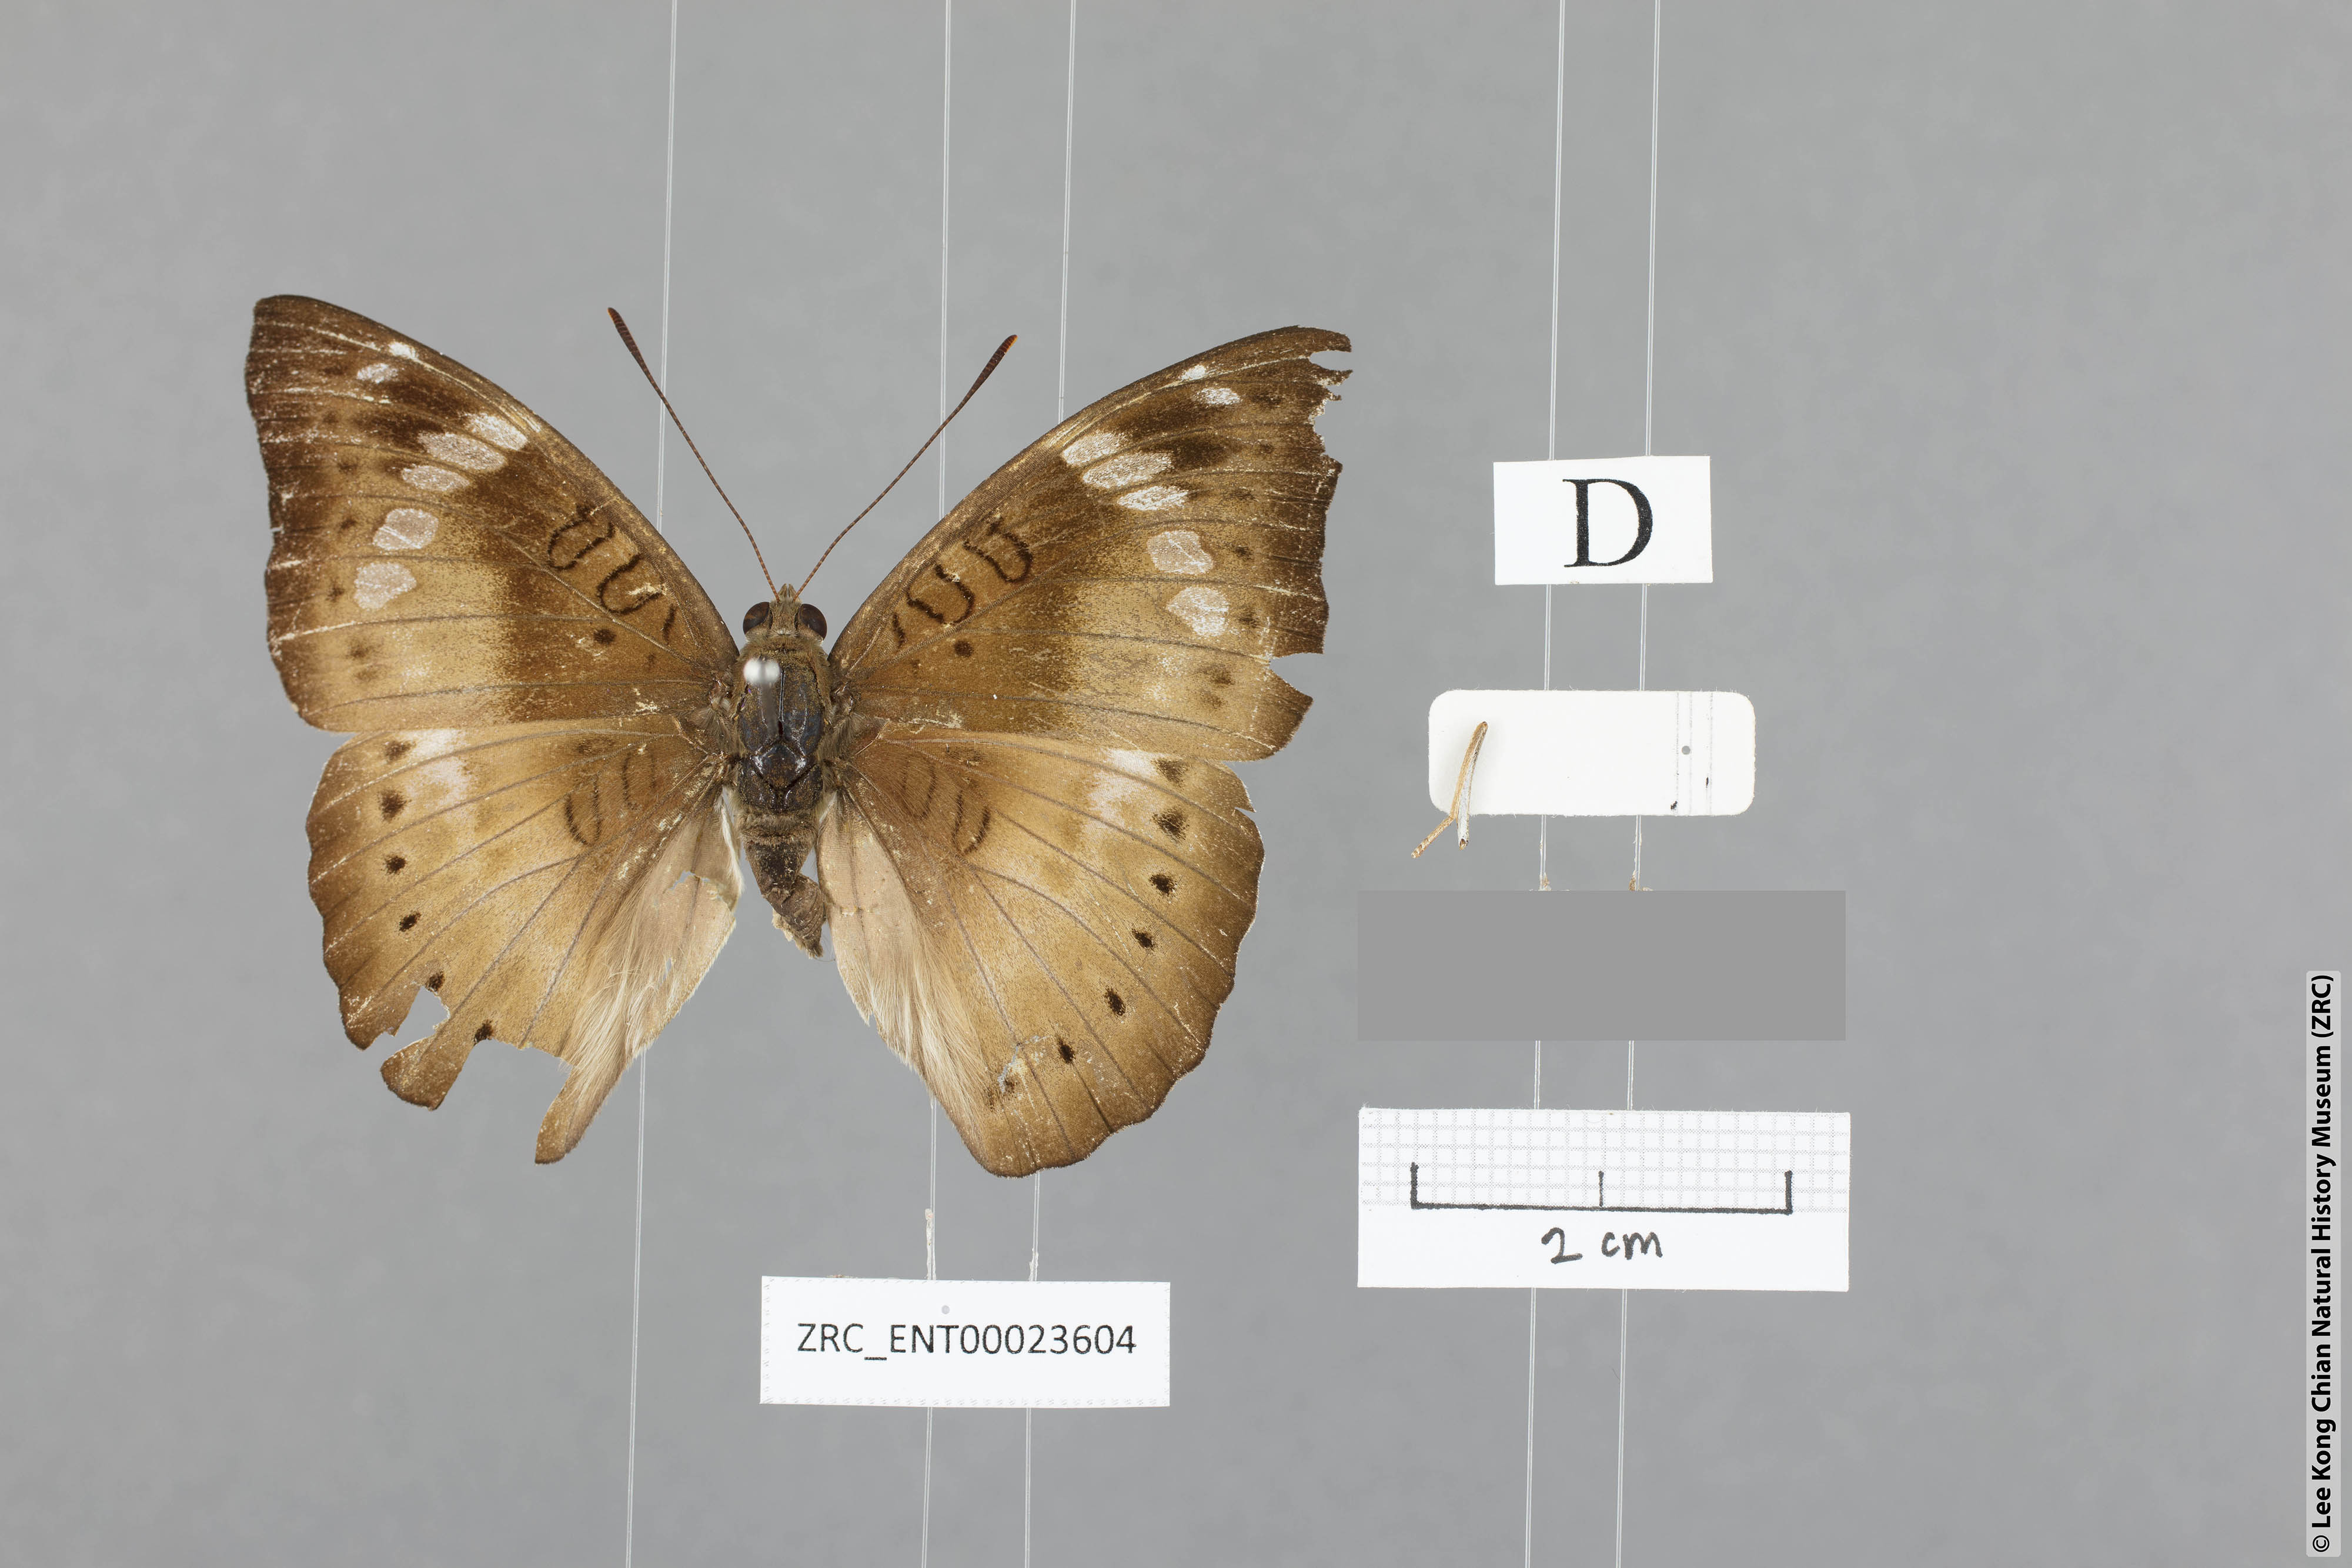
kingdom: Animalia
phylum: Arthropoda
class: Insecta
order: Lepidoptera
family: Nymphalidae
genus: Euthalia
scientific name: Euthalia agnis
